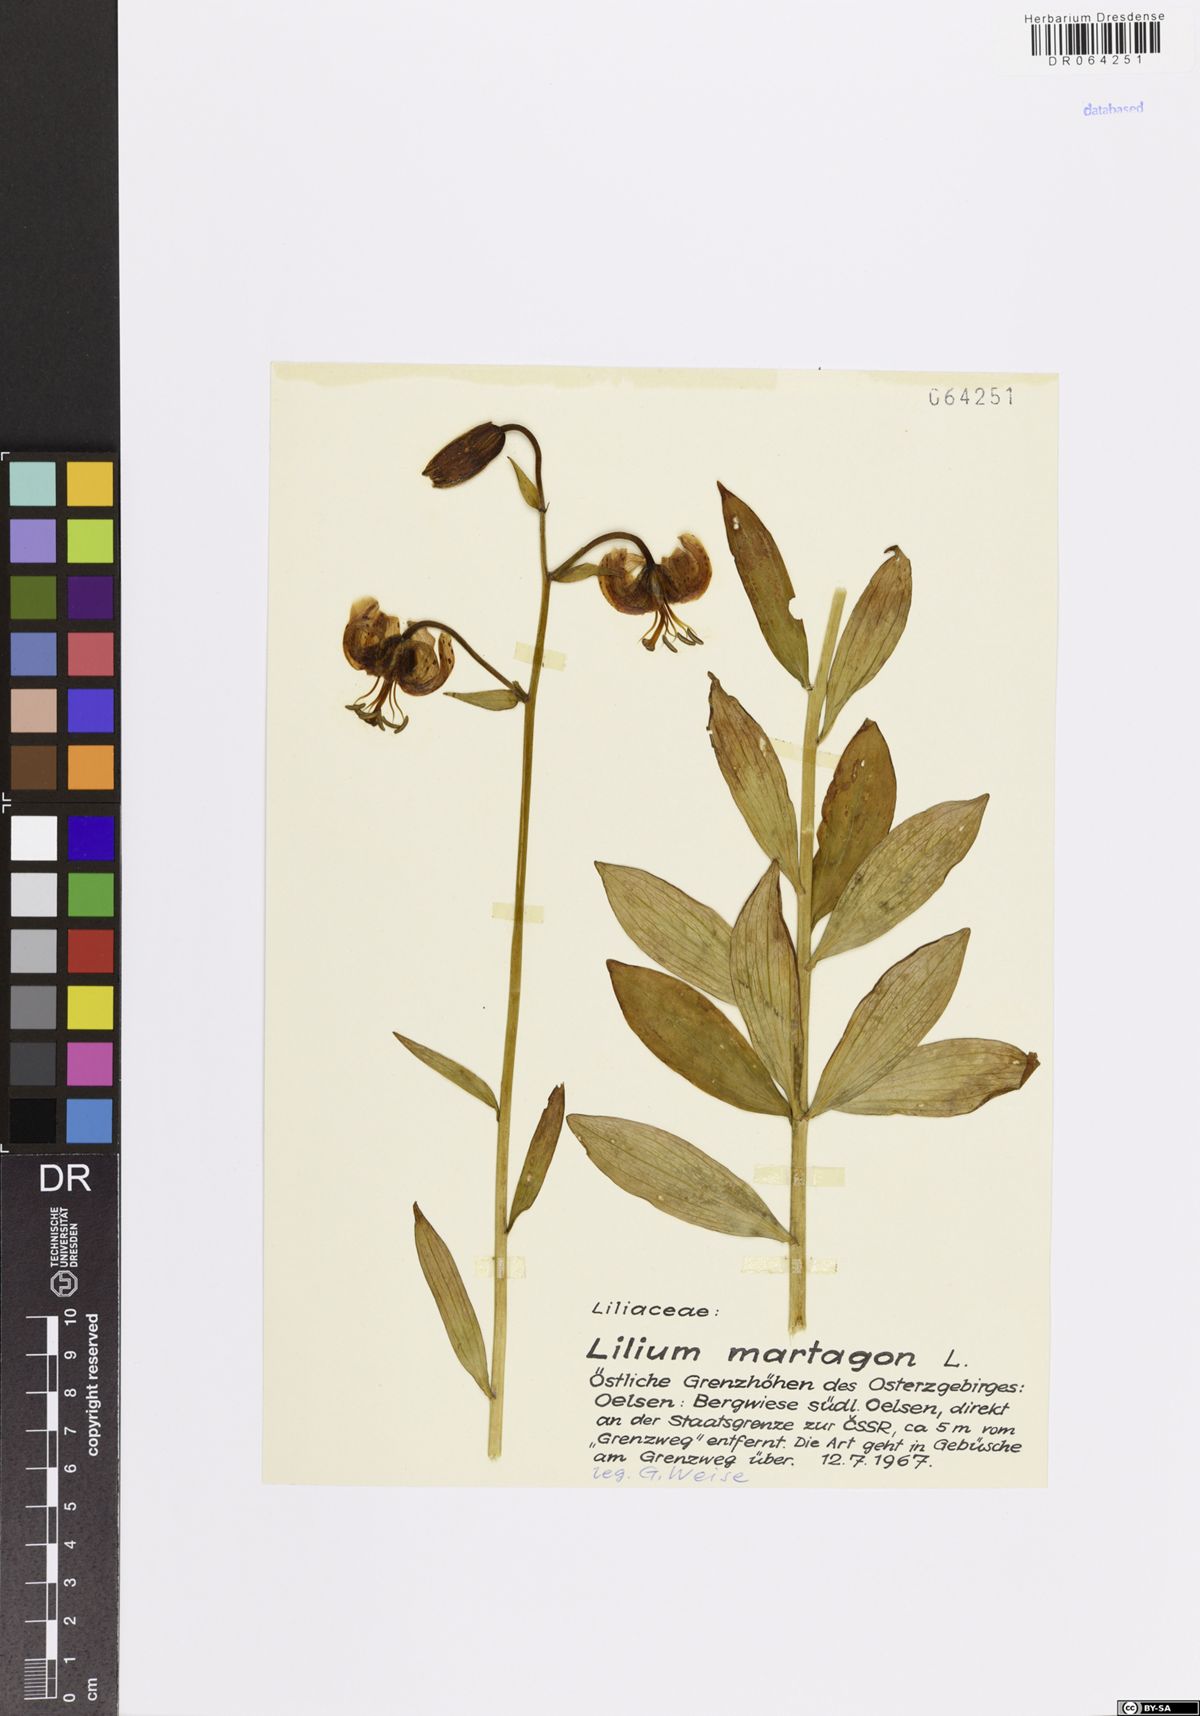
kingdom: Plantae
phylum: Tracheophyta
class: Liliopsida
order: Liliales
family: Liliaceae
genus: Lilium
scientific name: Lilium martagon
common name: Martagon lily
